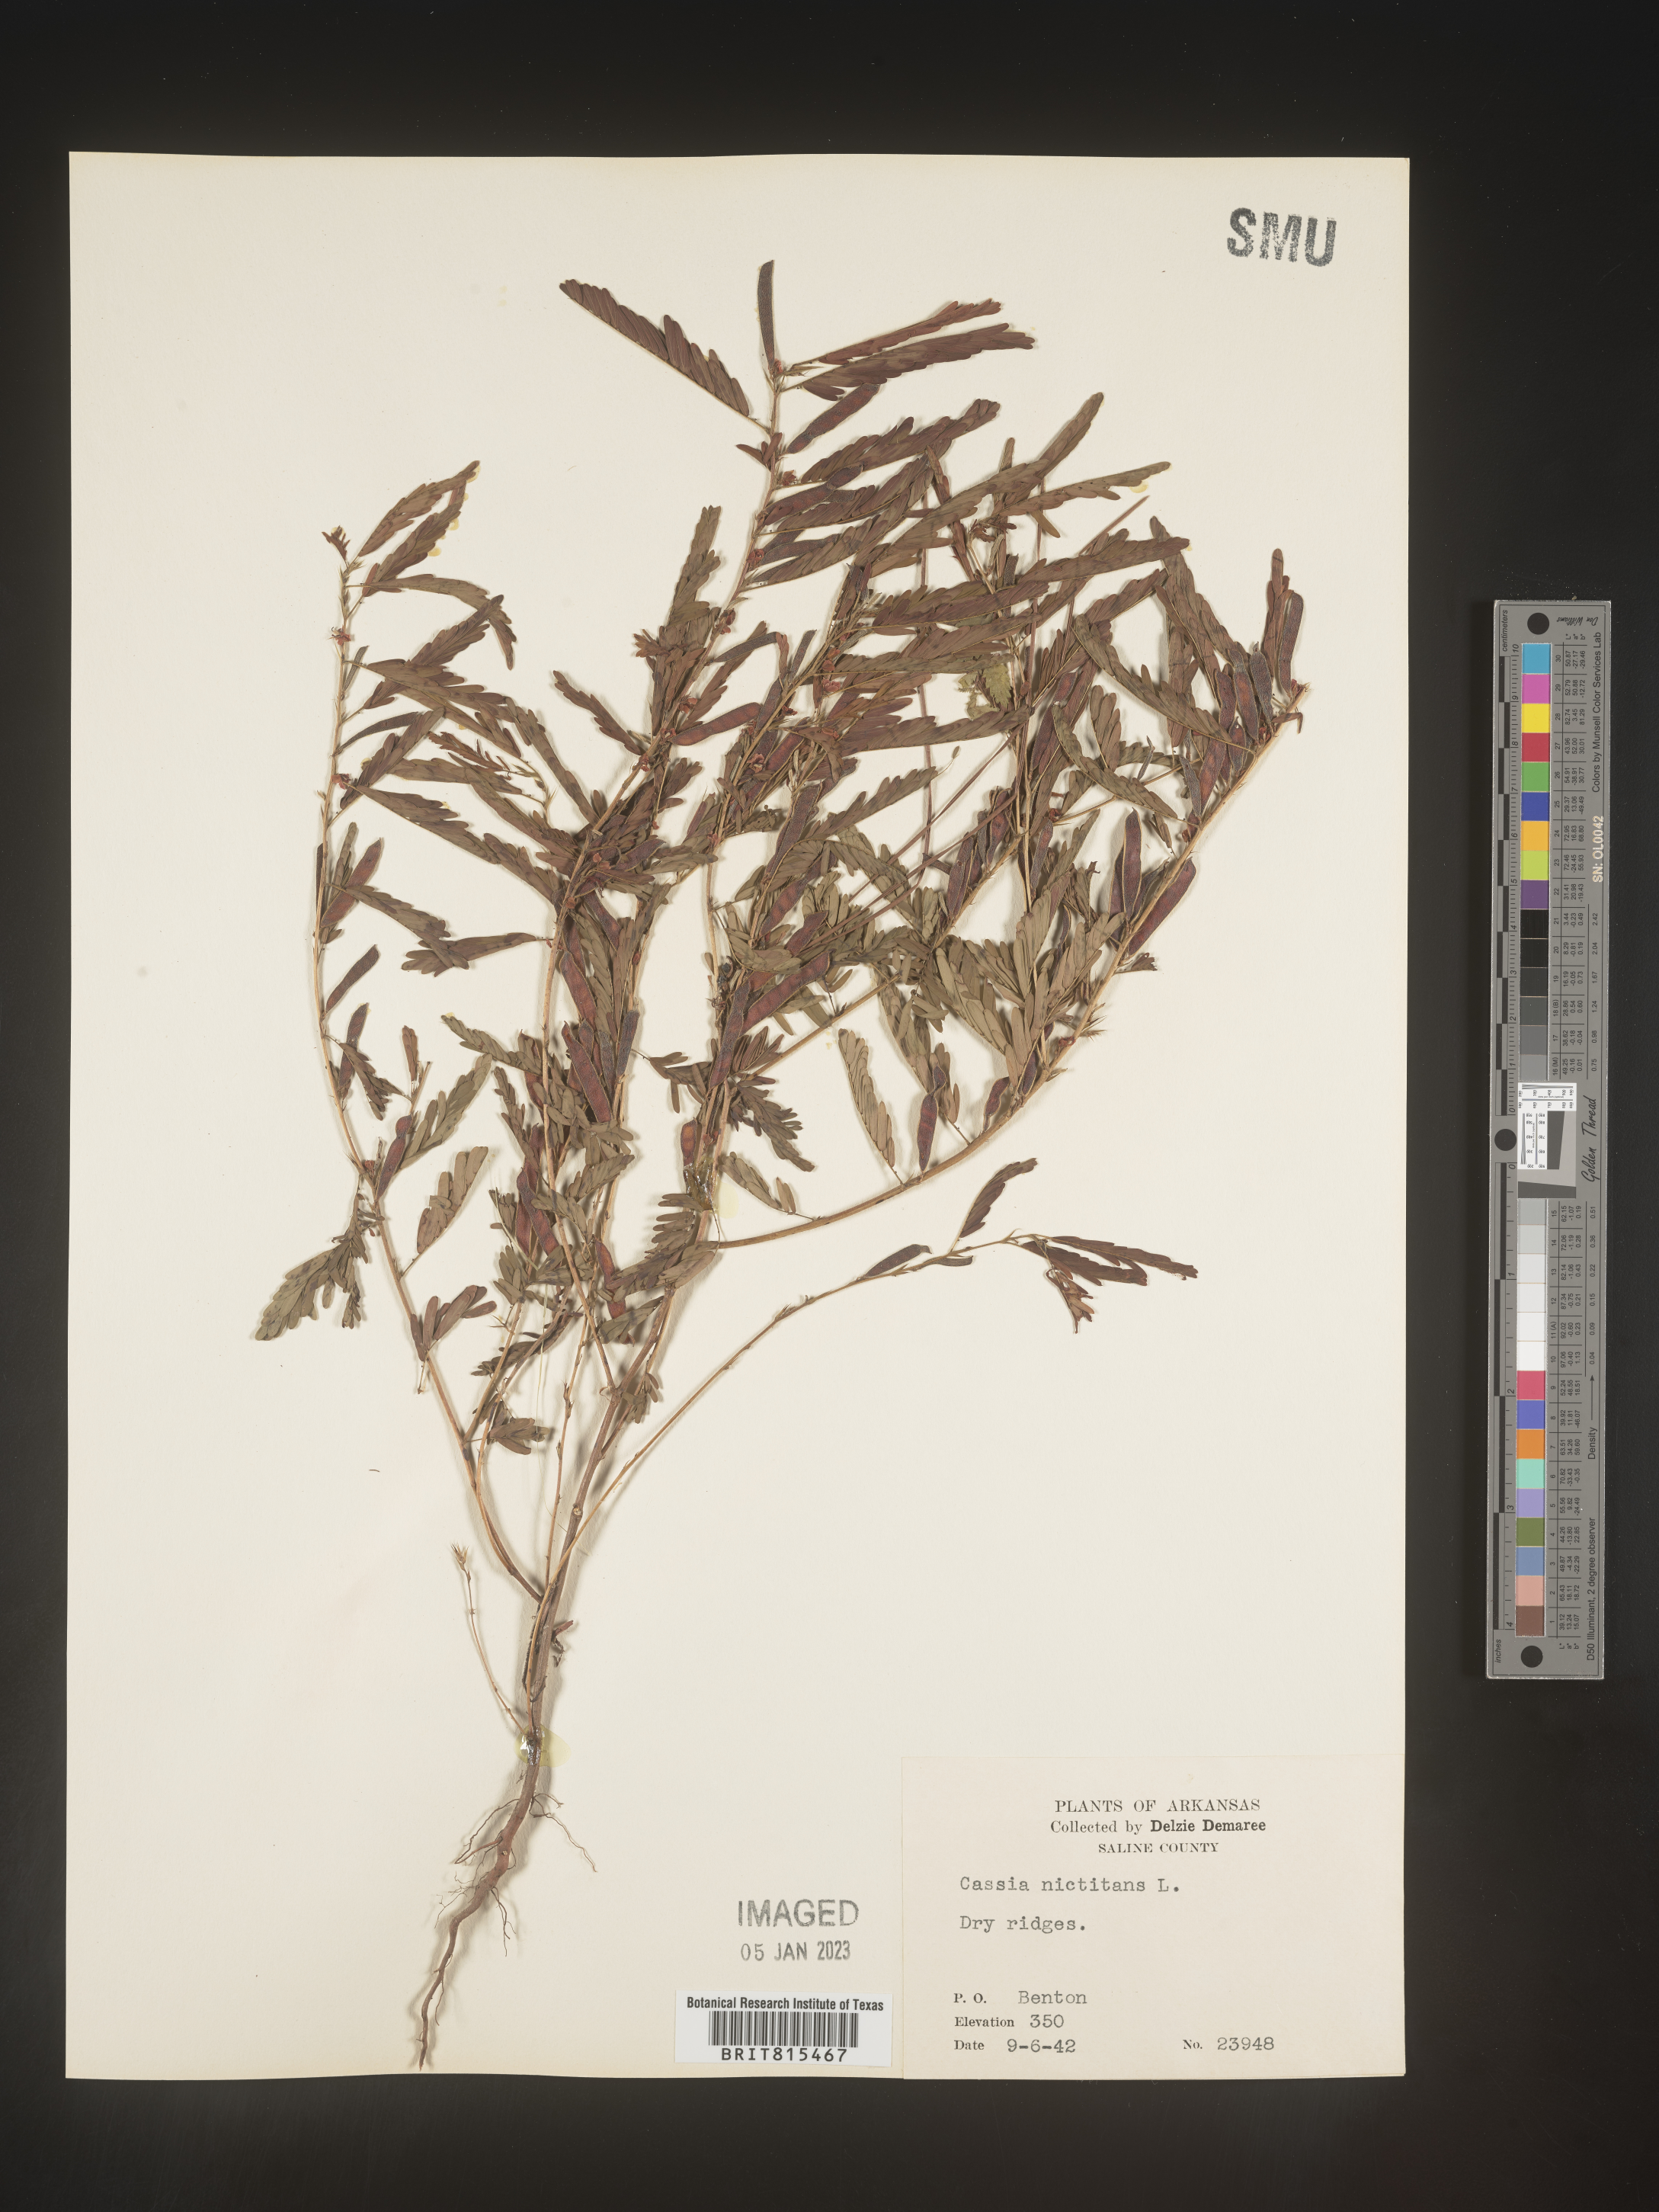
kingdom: Plantae
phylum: Tracheophyta
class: Magnoliopsida
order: Fabales
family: Fabaceae
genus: Chamaecrista
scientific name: Chamaecrista nictitans
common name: Sensitive cassia
